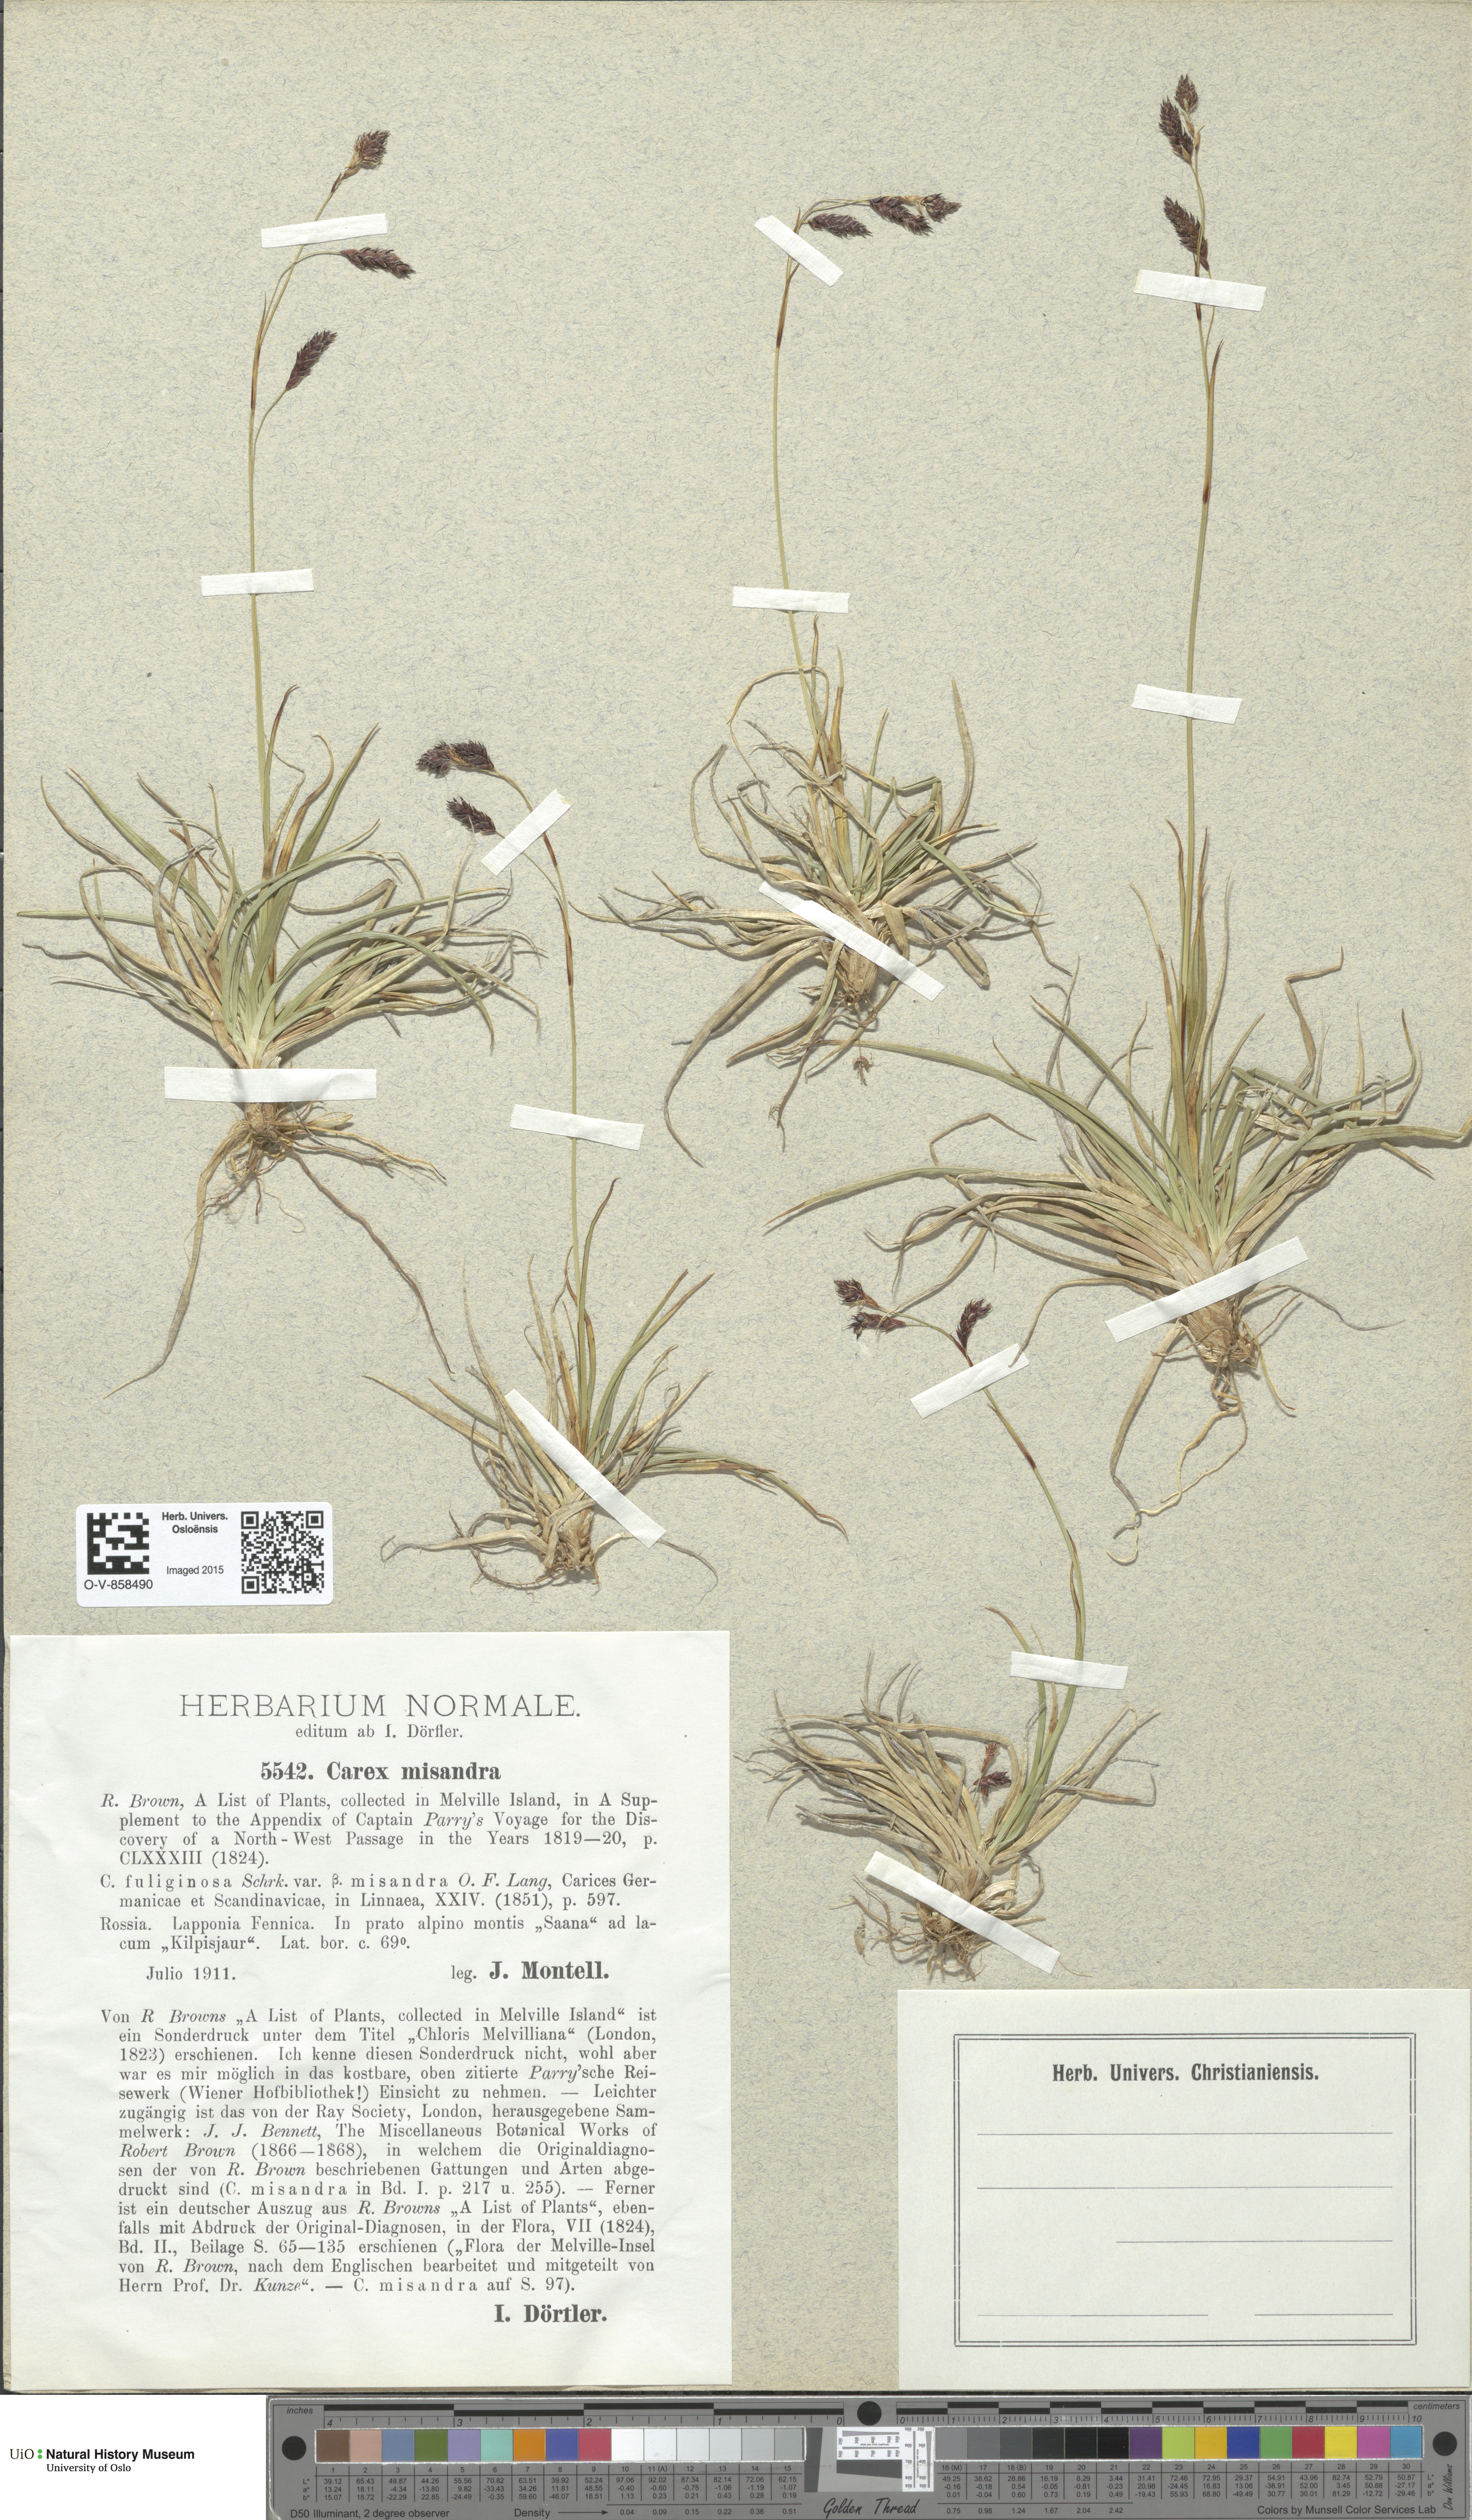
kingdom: Plantae
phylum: Tracheophyta
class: Liliopsida
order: Poales
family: Cyperaceae
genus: Carex
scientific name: Carex fuliginosa
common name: Few-flowered sedge
